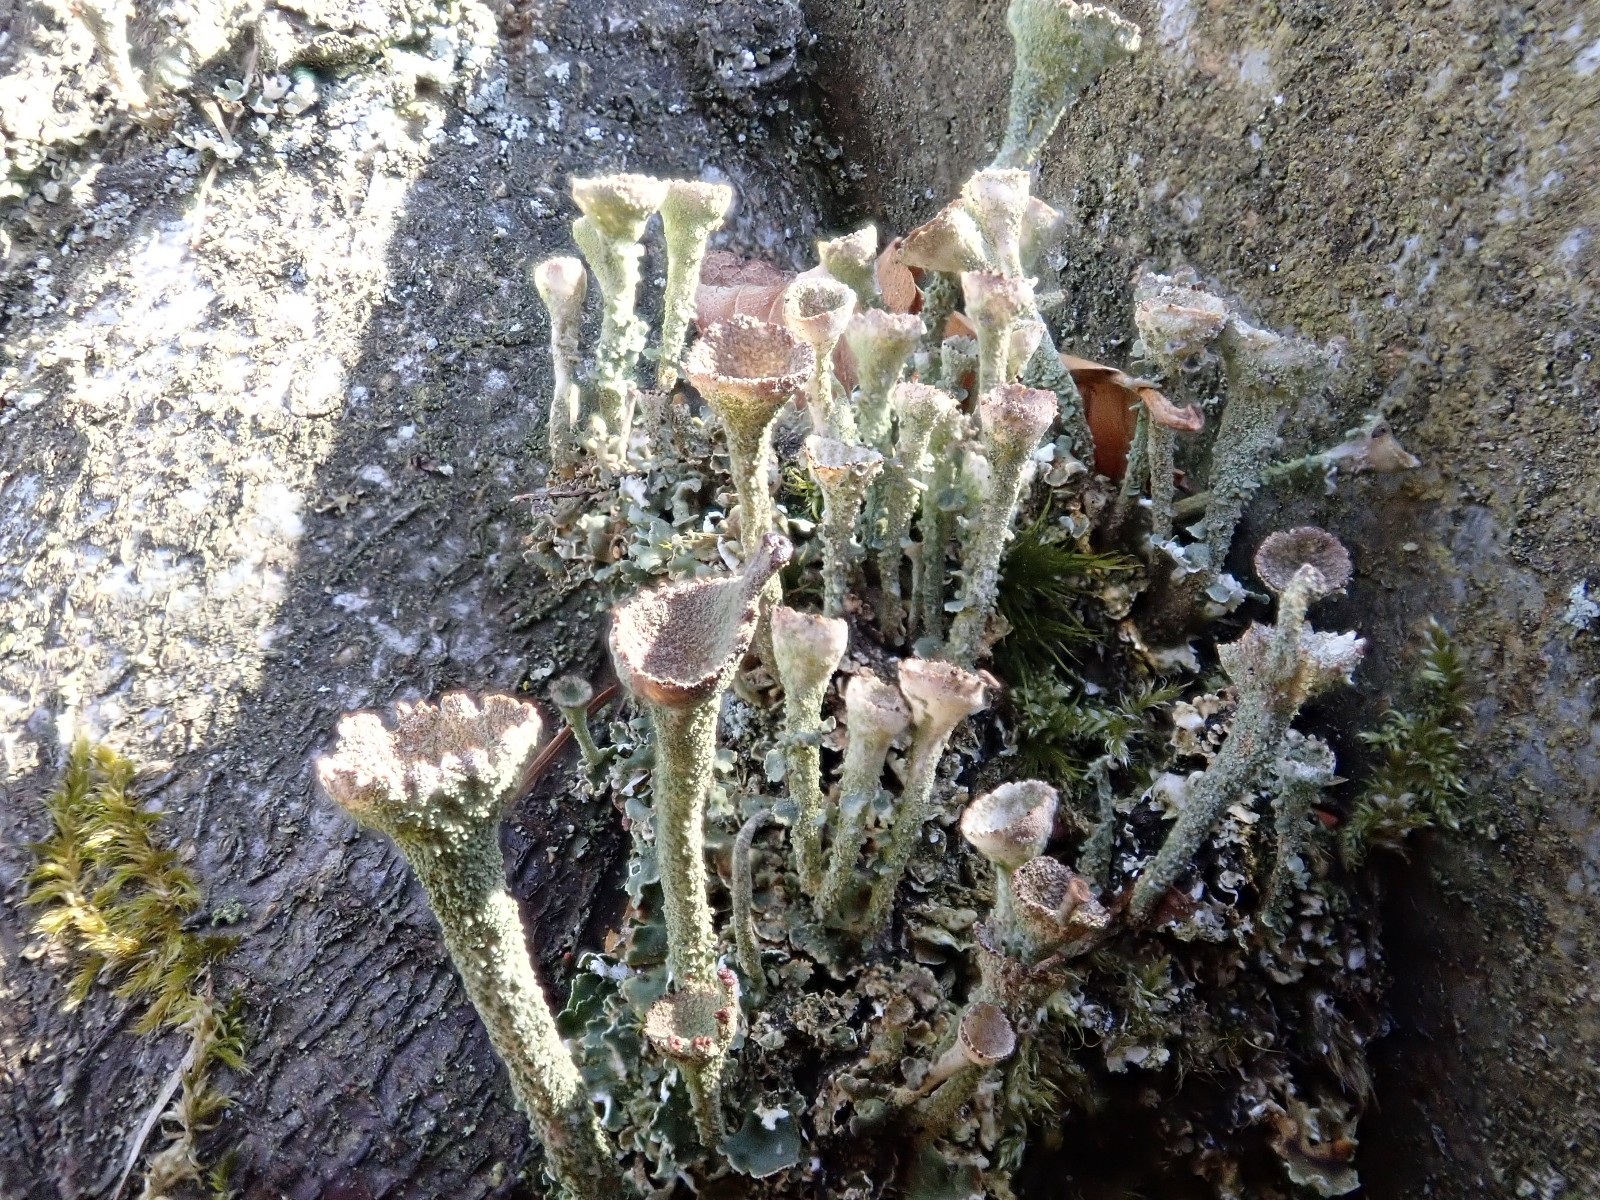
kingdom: Fungi
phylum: Ascomycota
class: Lecanoromycetes
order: Lecanorales
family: Cladoniaceae
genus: Cladonia
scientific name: Cladonia
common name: brungrøn bægerlav
